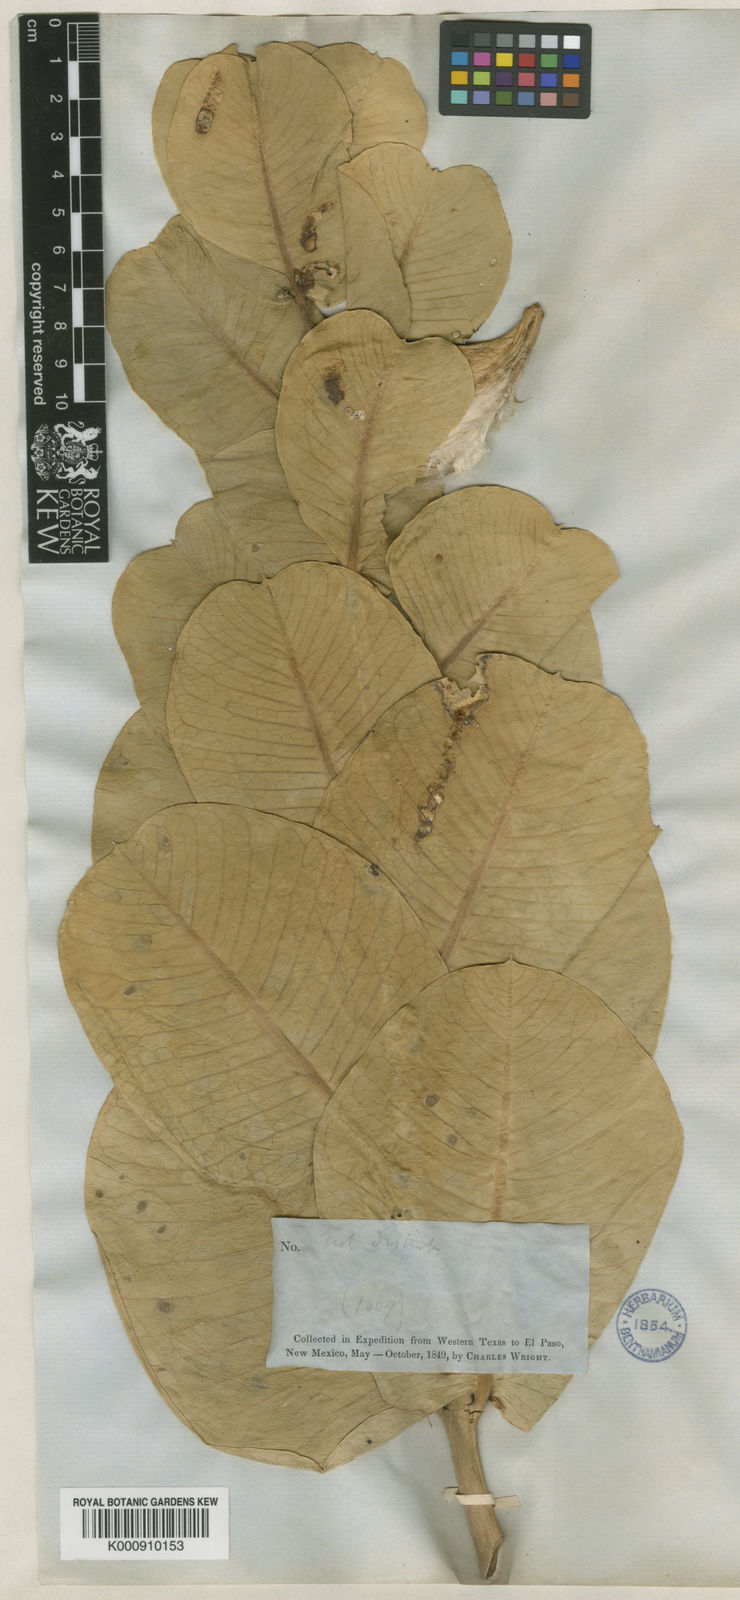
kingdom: Plantae
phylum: Tracheophyta
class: Magnoliopsida
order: Gentianales
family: Apocynaceae
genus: Asclepias
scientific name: Asclepias latifolia
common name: Broadleaf milkweed
